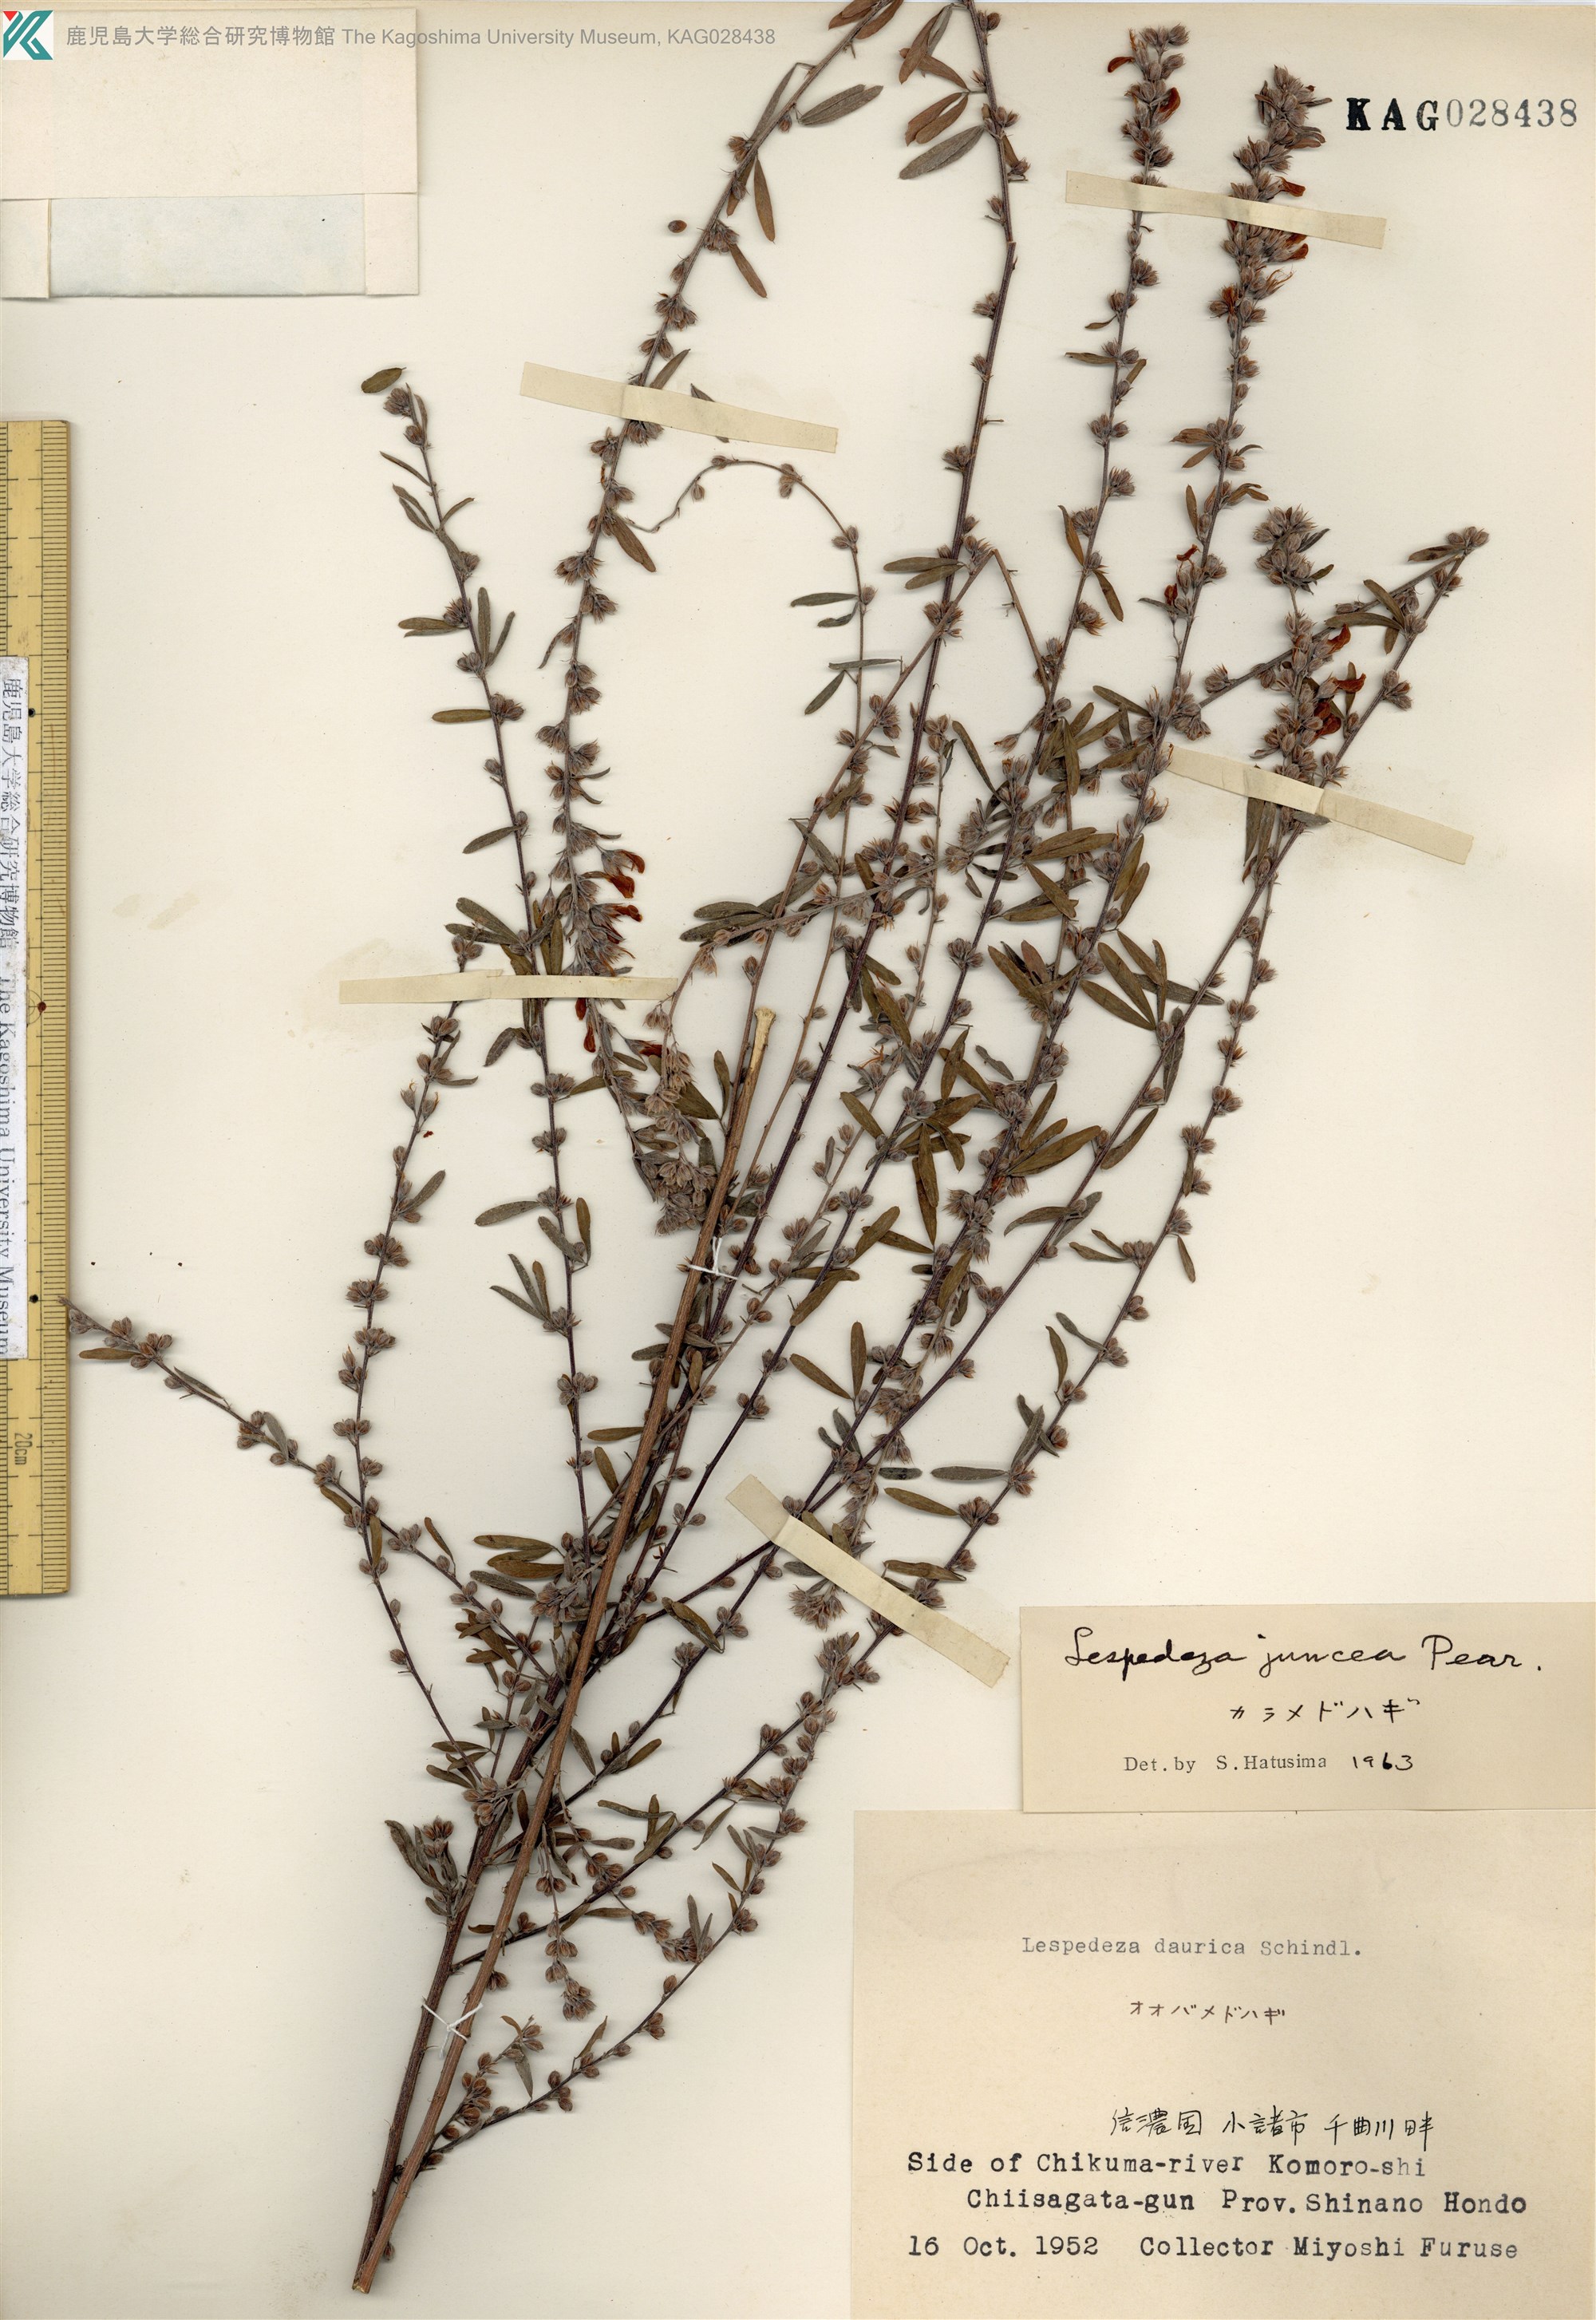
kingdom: Plantae
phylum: Tracheophyta
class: Magnoliopsida
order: Fabales
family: Fabaceae
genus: Lespedeza
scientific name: Lespedeza juncea
